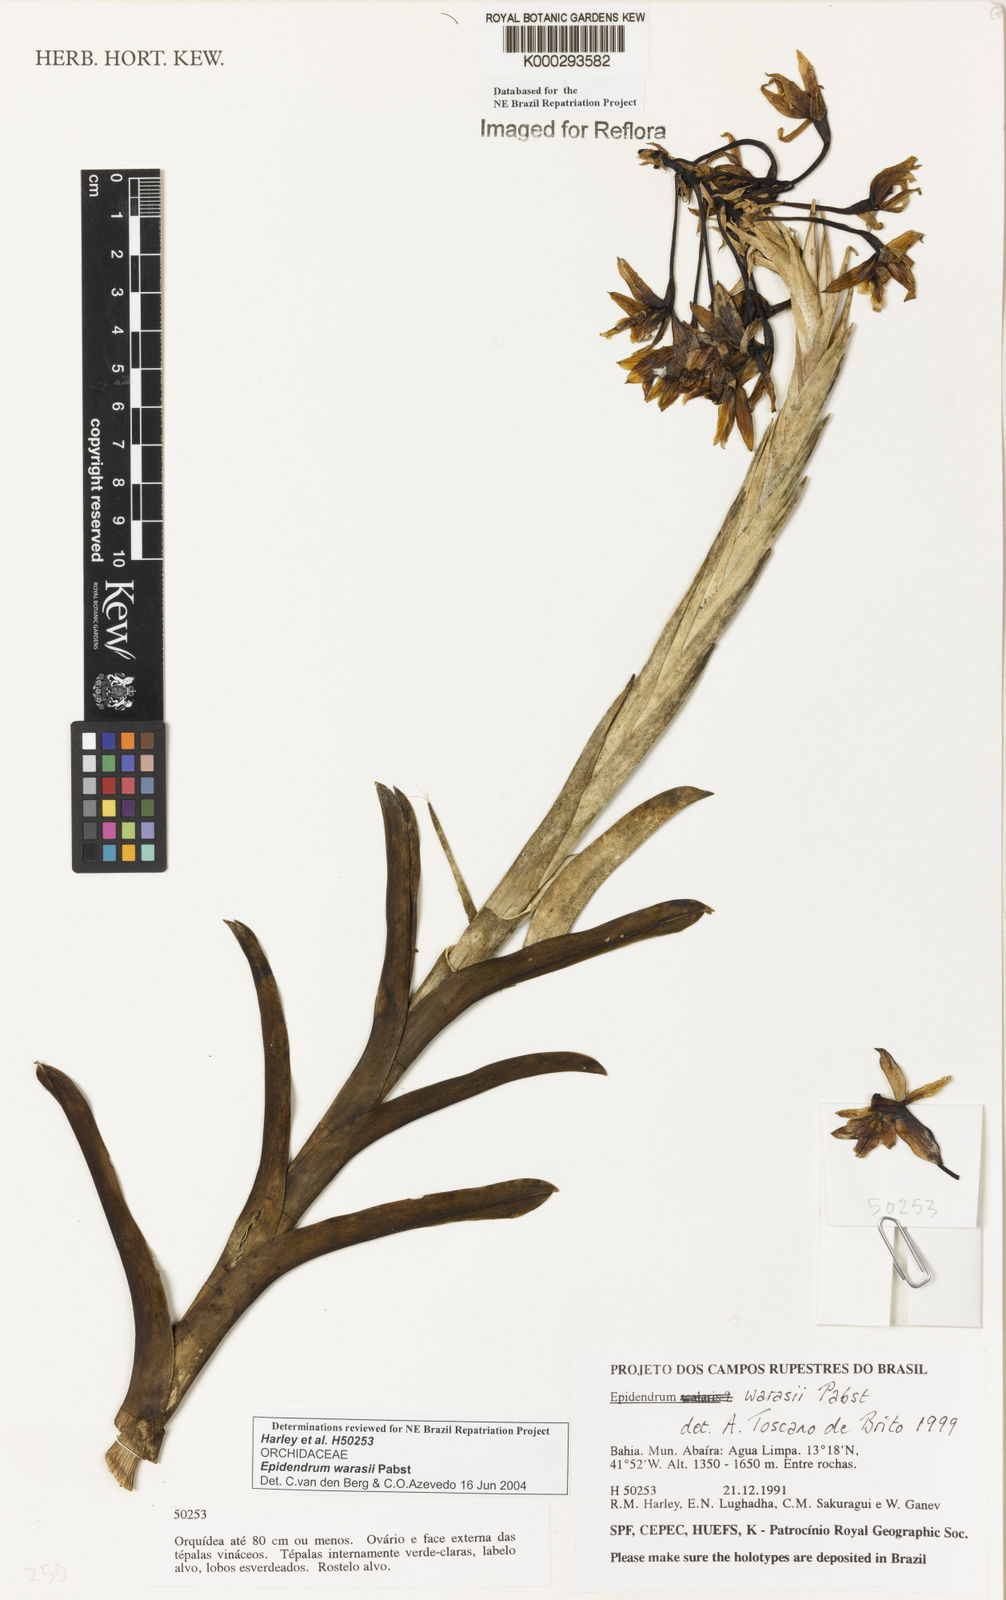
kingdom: Plantae
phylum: Tracheophyta
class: Liliopsida
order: Asparagales
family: Orchidaceae
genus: Epidendrum
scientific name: Epidendrum warrasii
